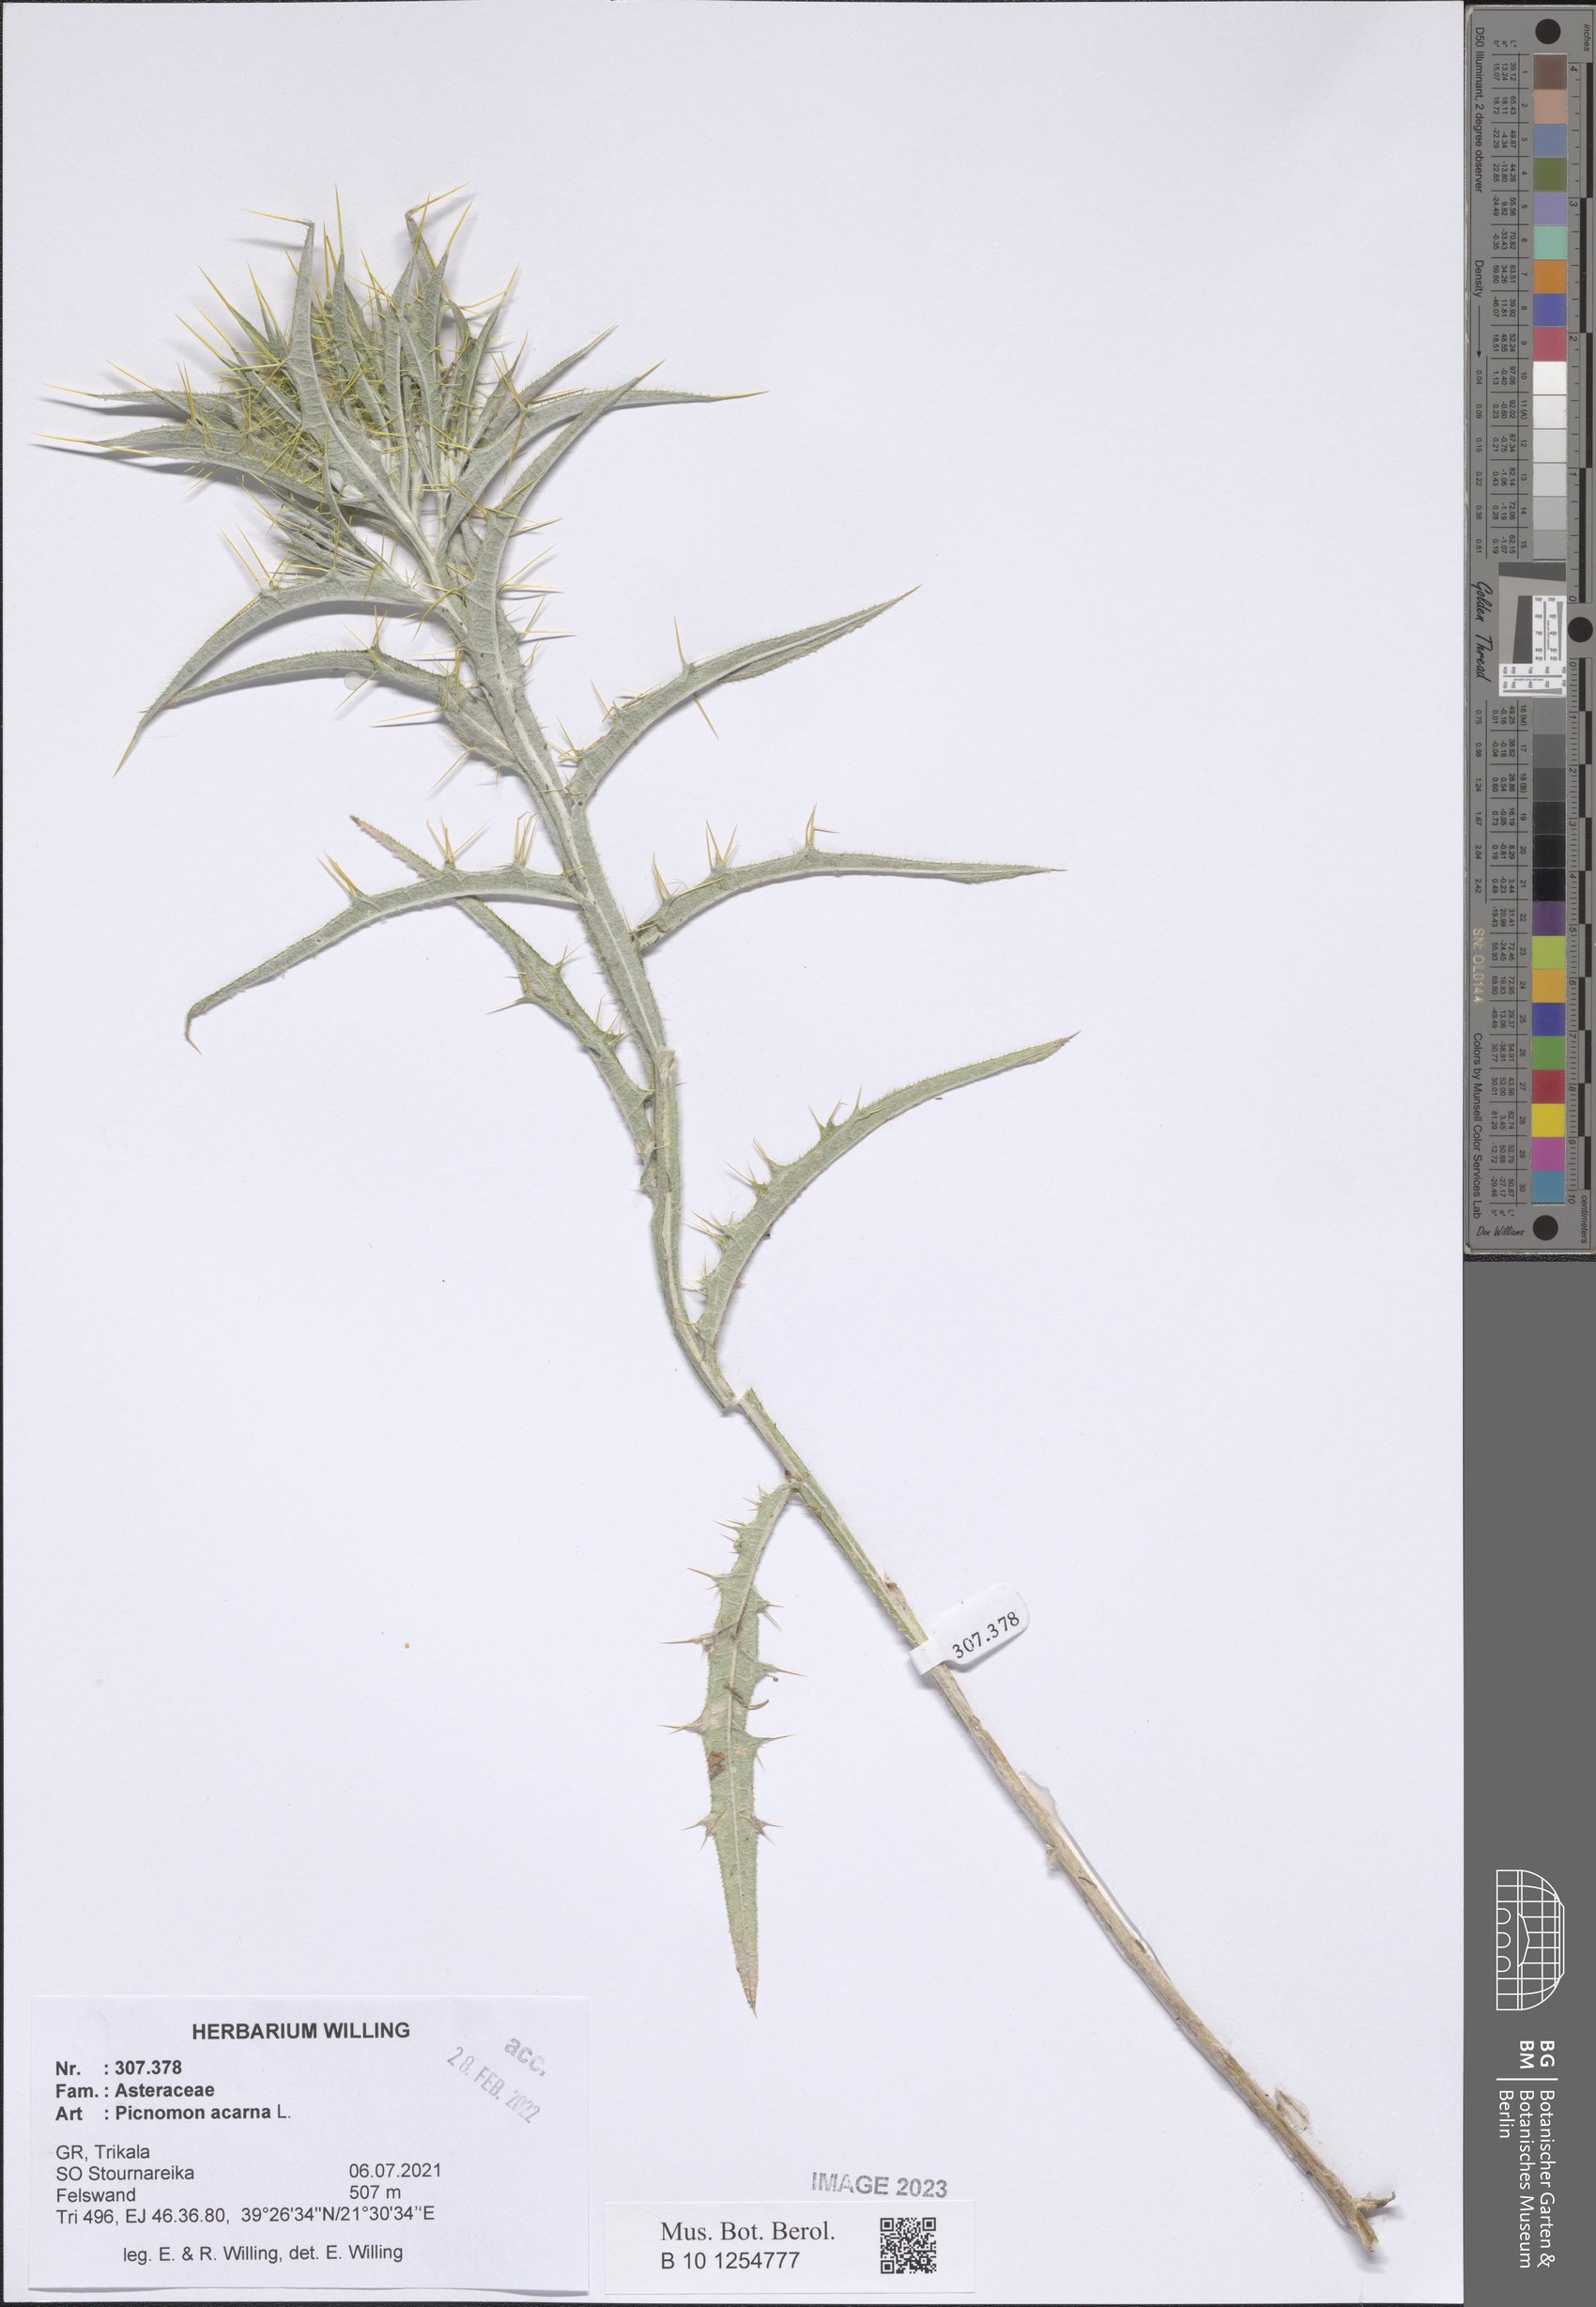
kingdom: Plantae
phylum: Tracheophyta
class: Magnoliopsida
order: Asterales
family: Asteraceae
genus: Picnomon
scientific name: Picnomon acarna
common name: Soldier thistle
